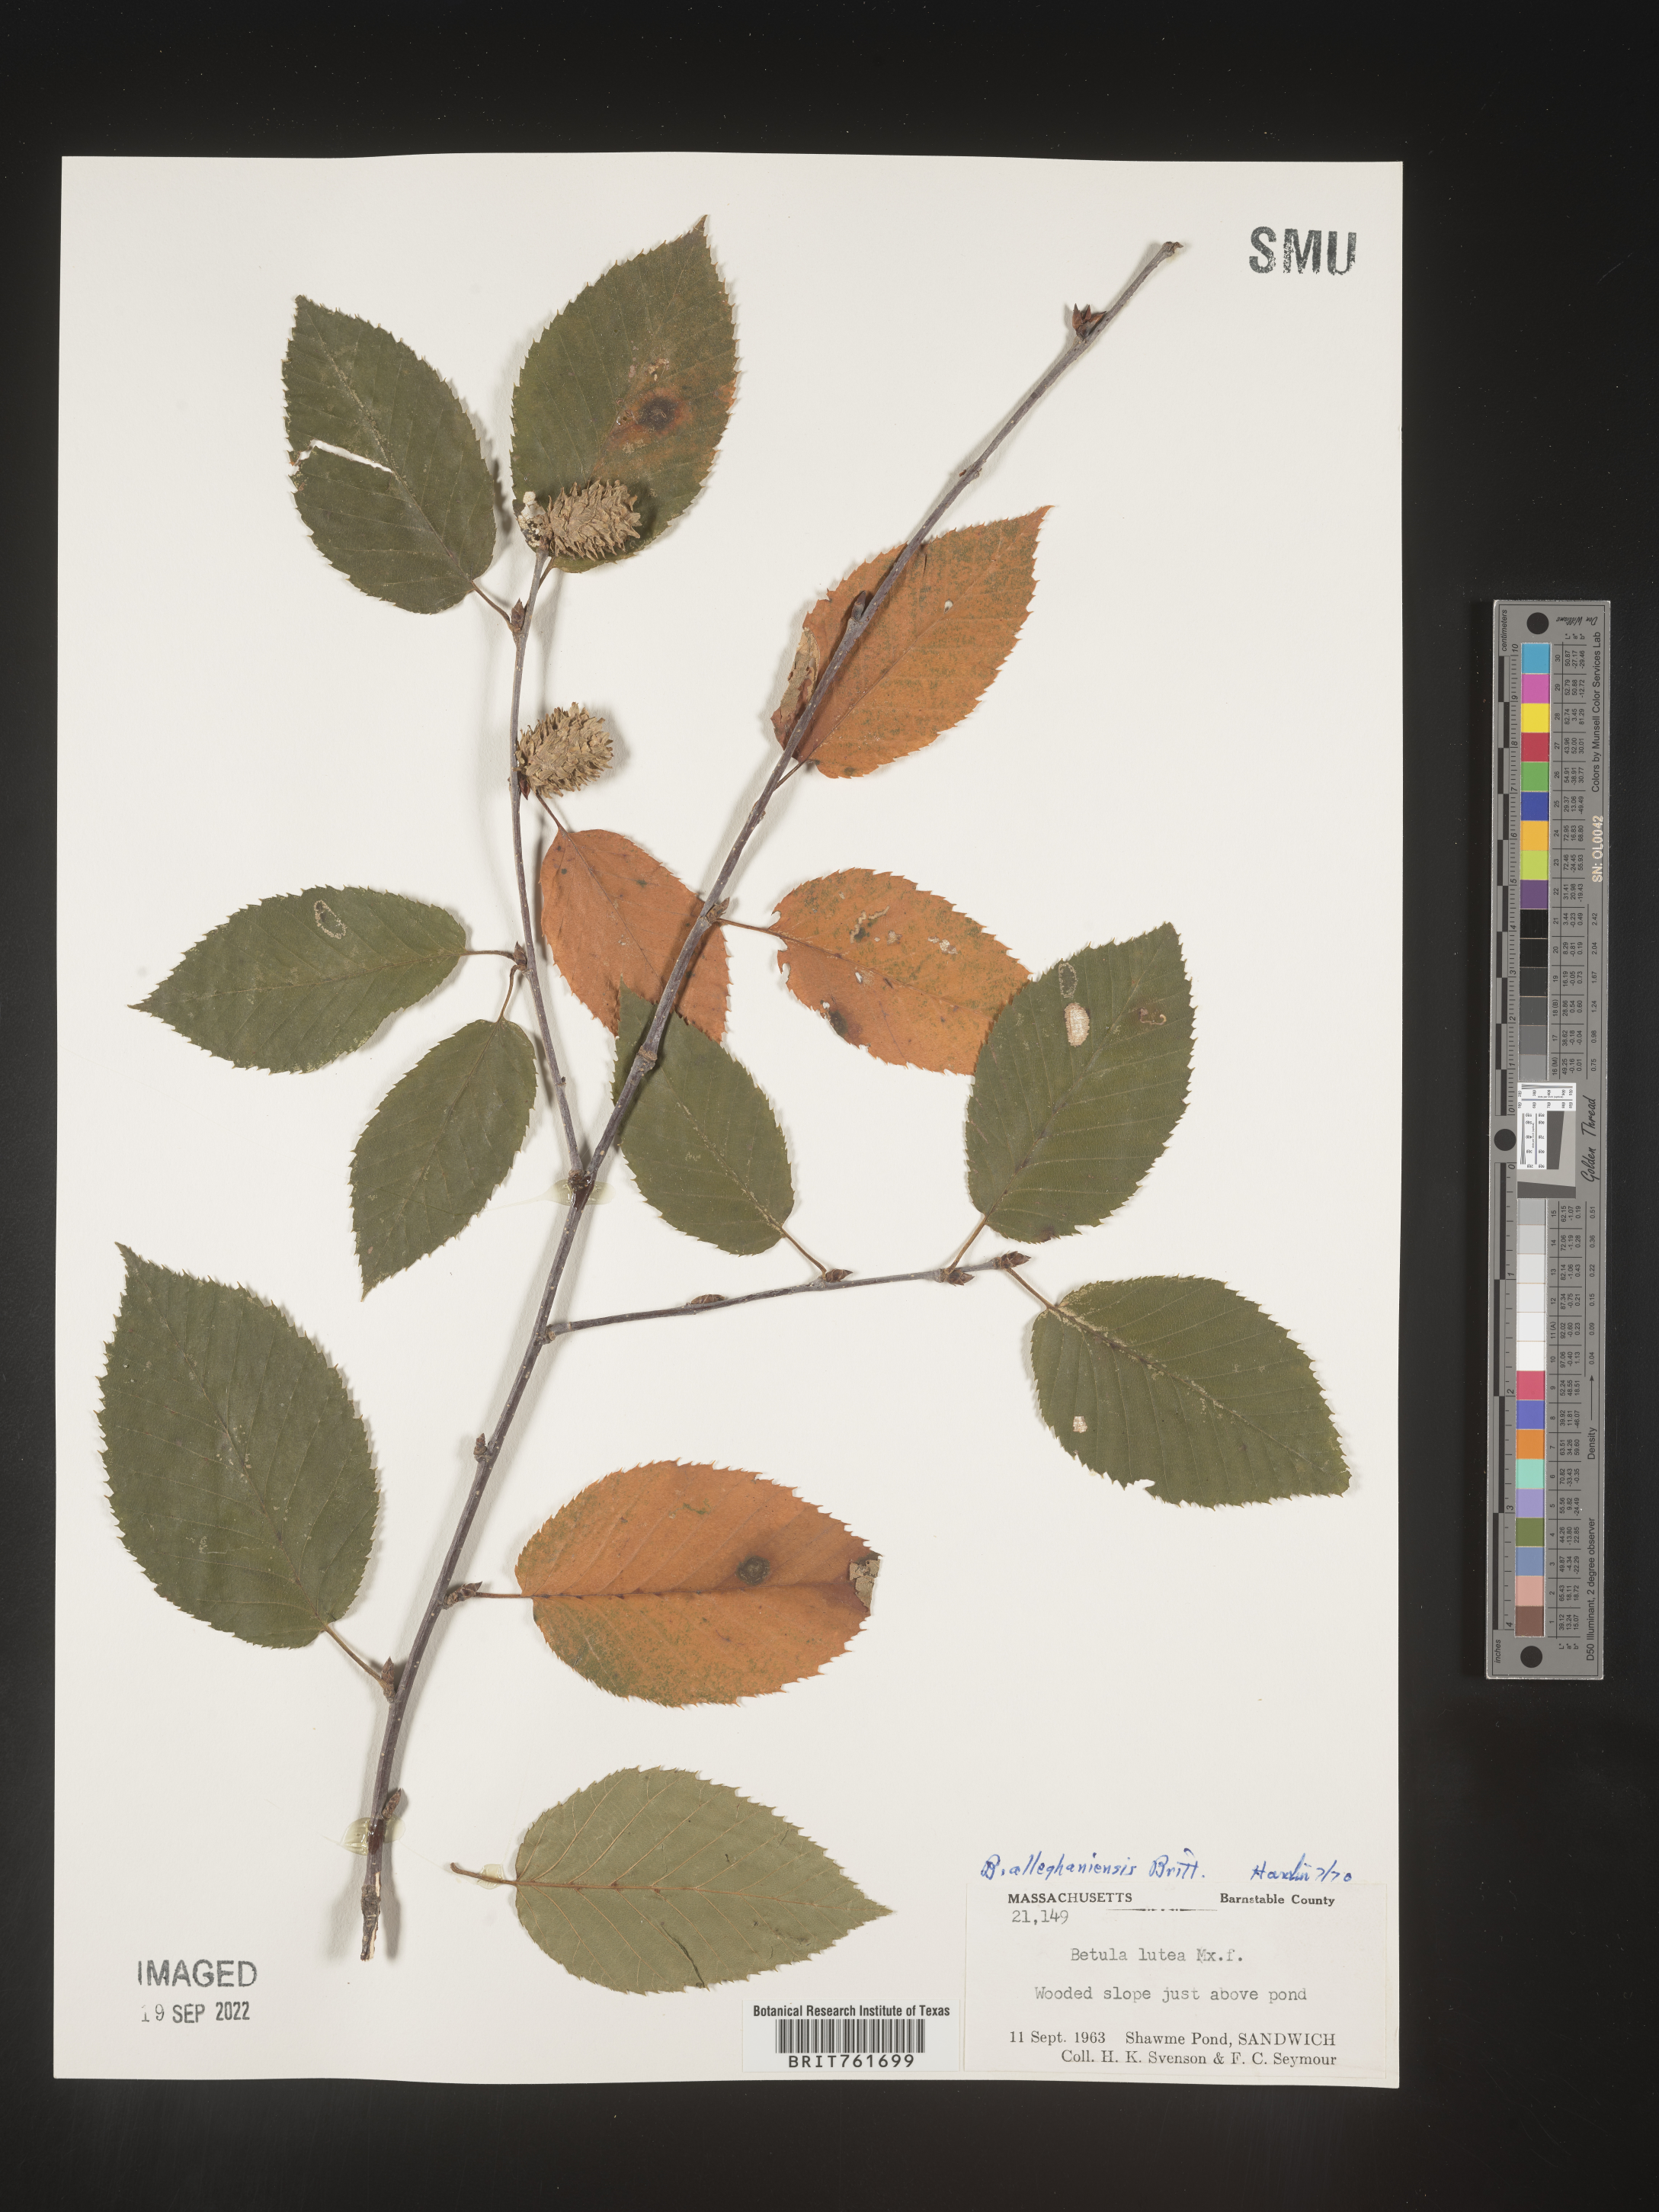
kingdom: Plantae
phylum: Tracheophyta
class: Magnoliopsida
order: Fagales
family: Betulaceae
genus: Betula
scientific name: Betula alleghaniensis
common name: Yellow birch
